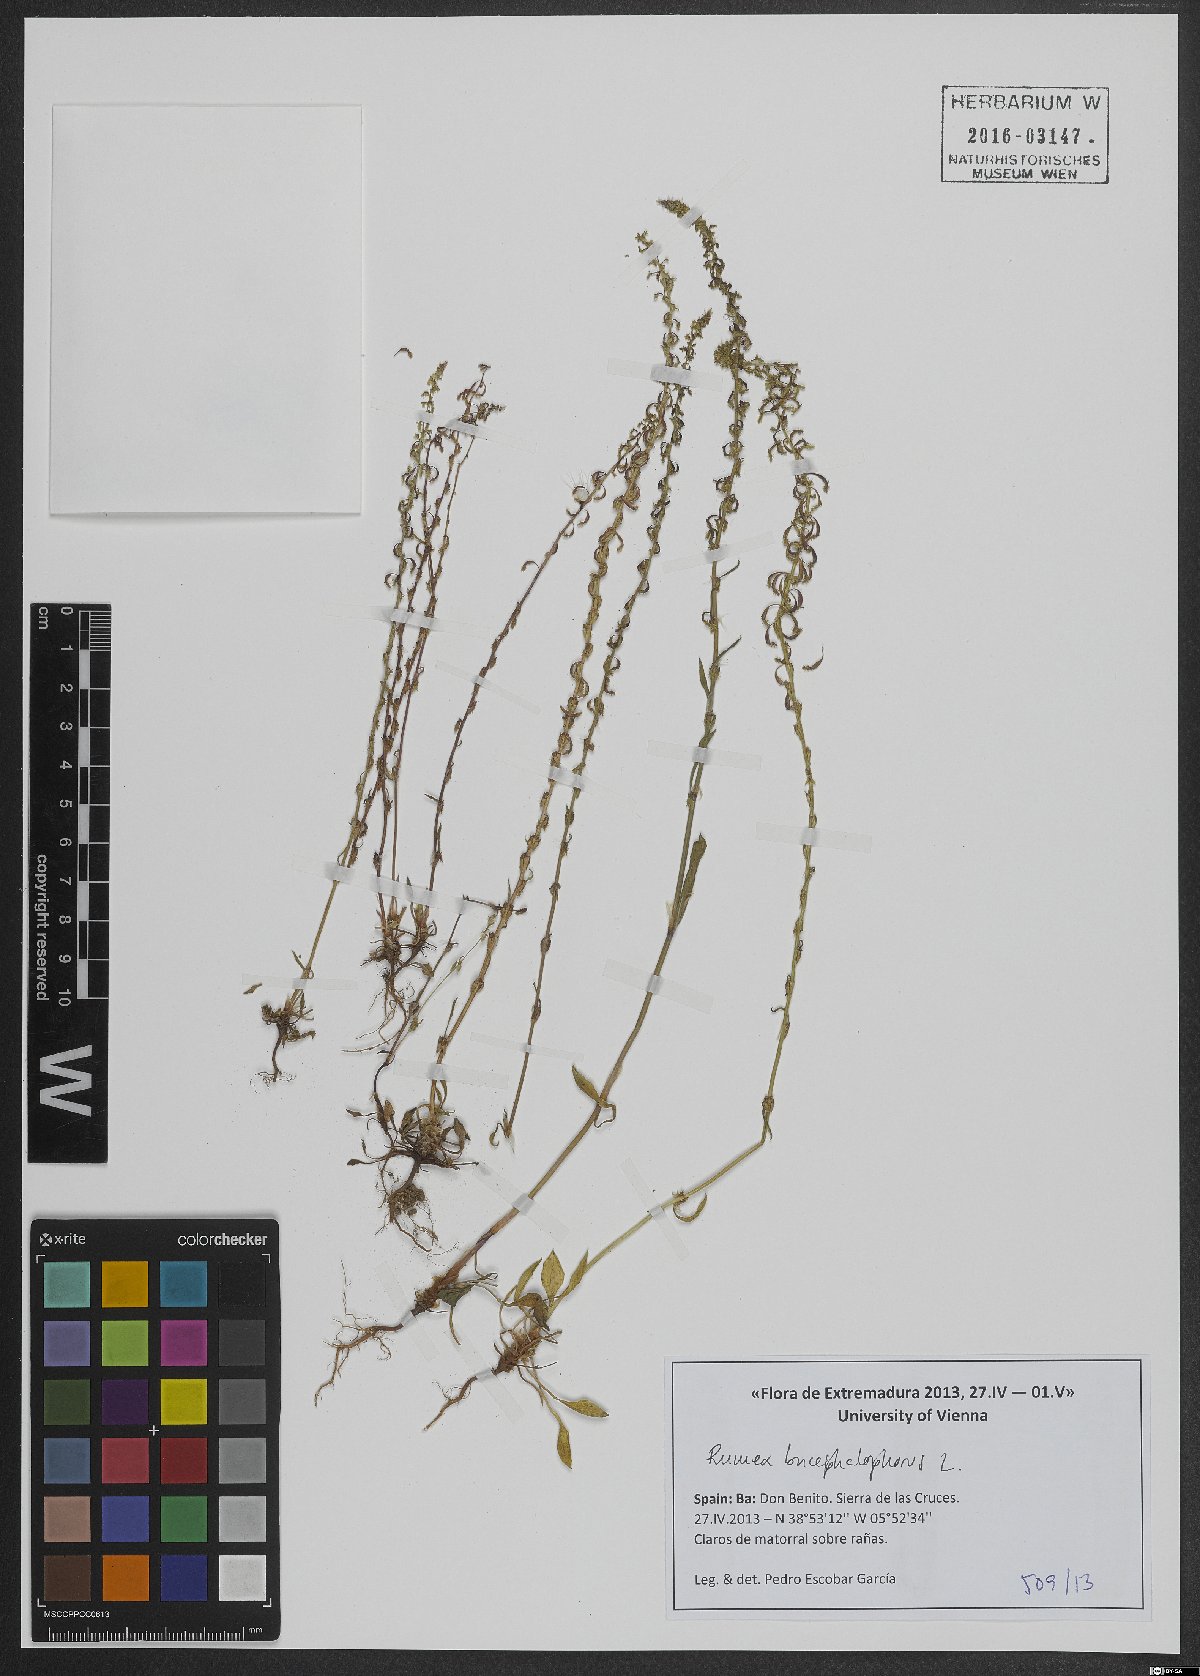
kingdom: Plantae
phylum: Tracheophyta
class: Magnoliopsida
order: Caryophyllales
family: Polygonaceae
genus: Rumex
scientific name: Rumex bucephalophorus
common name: Red dock
